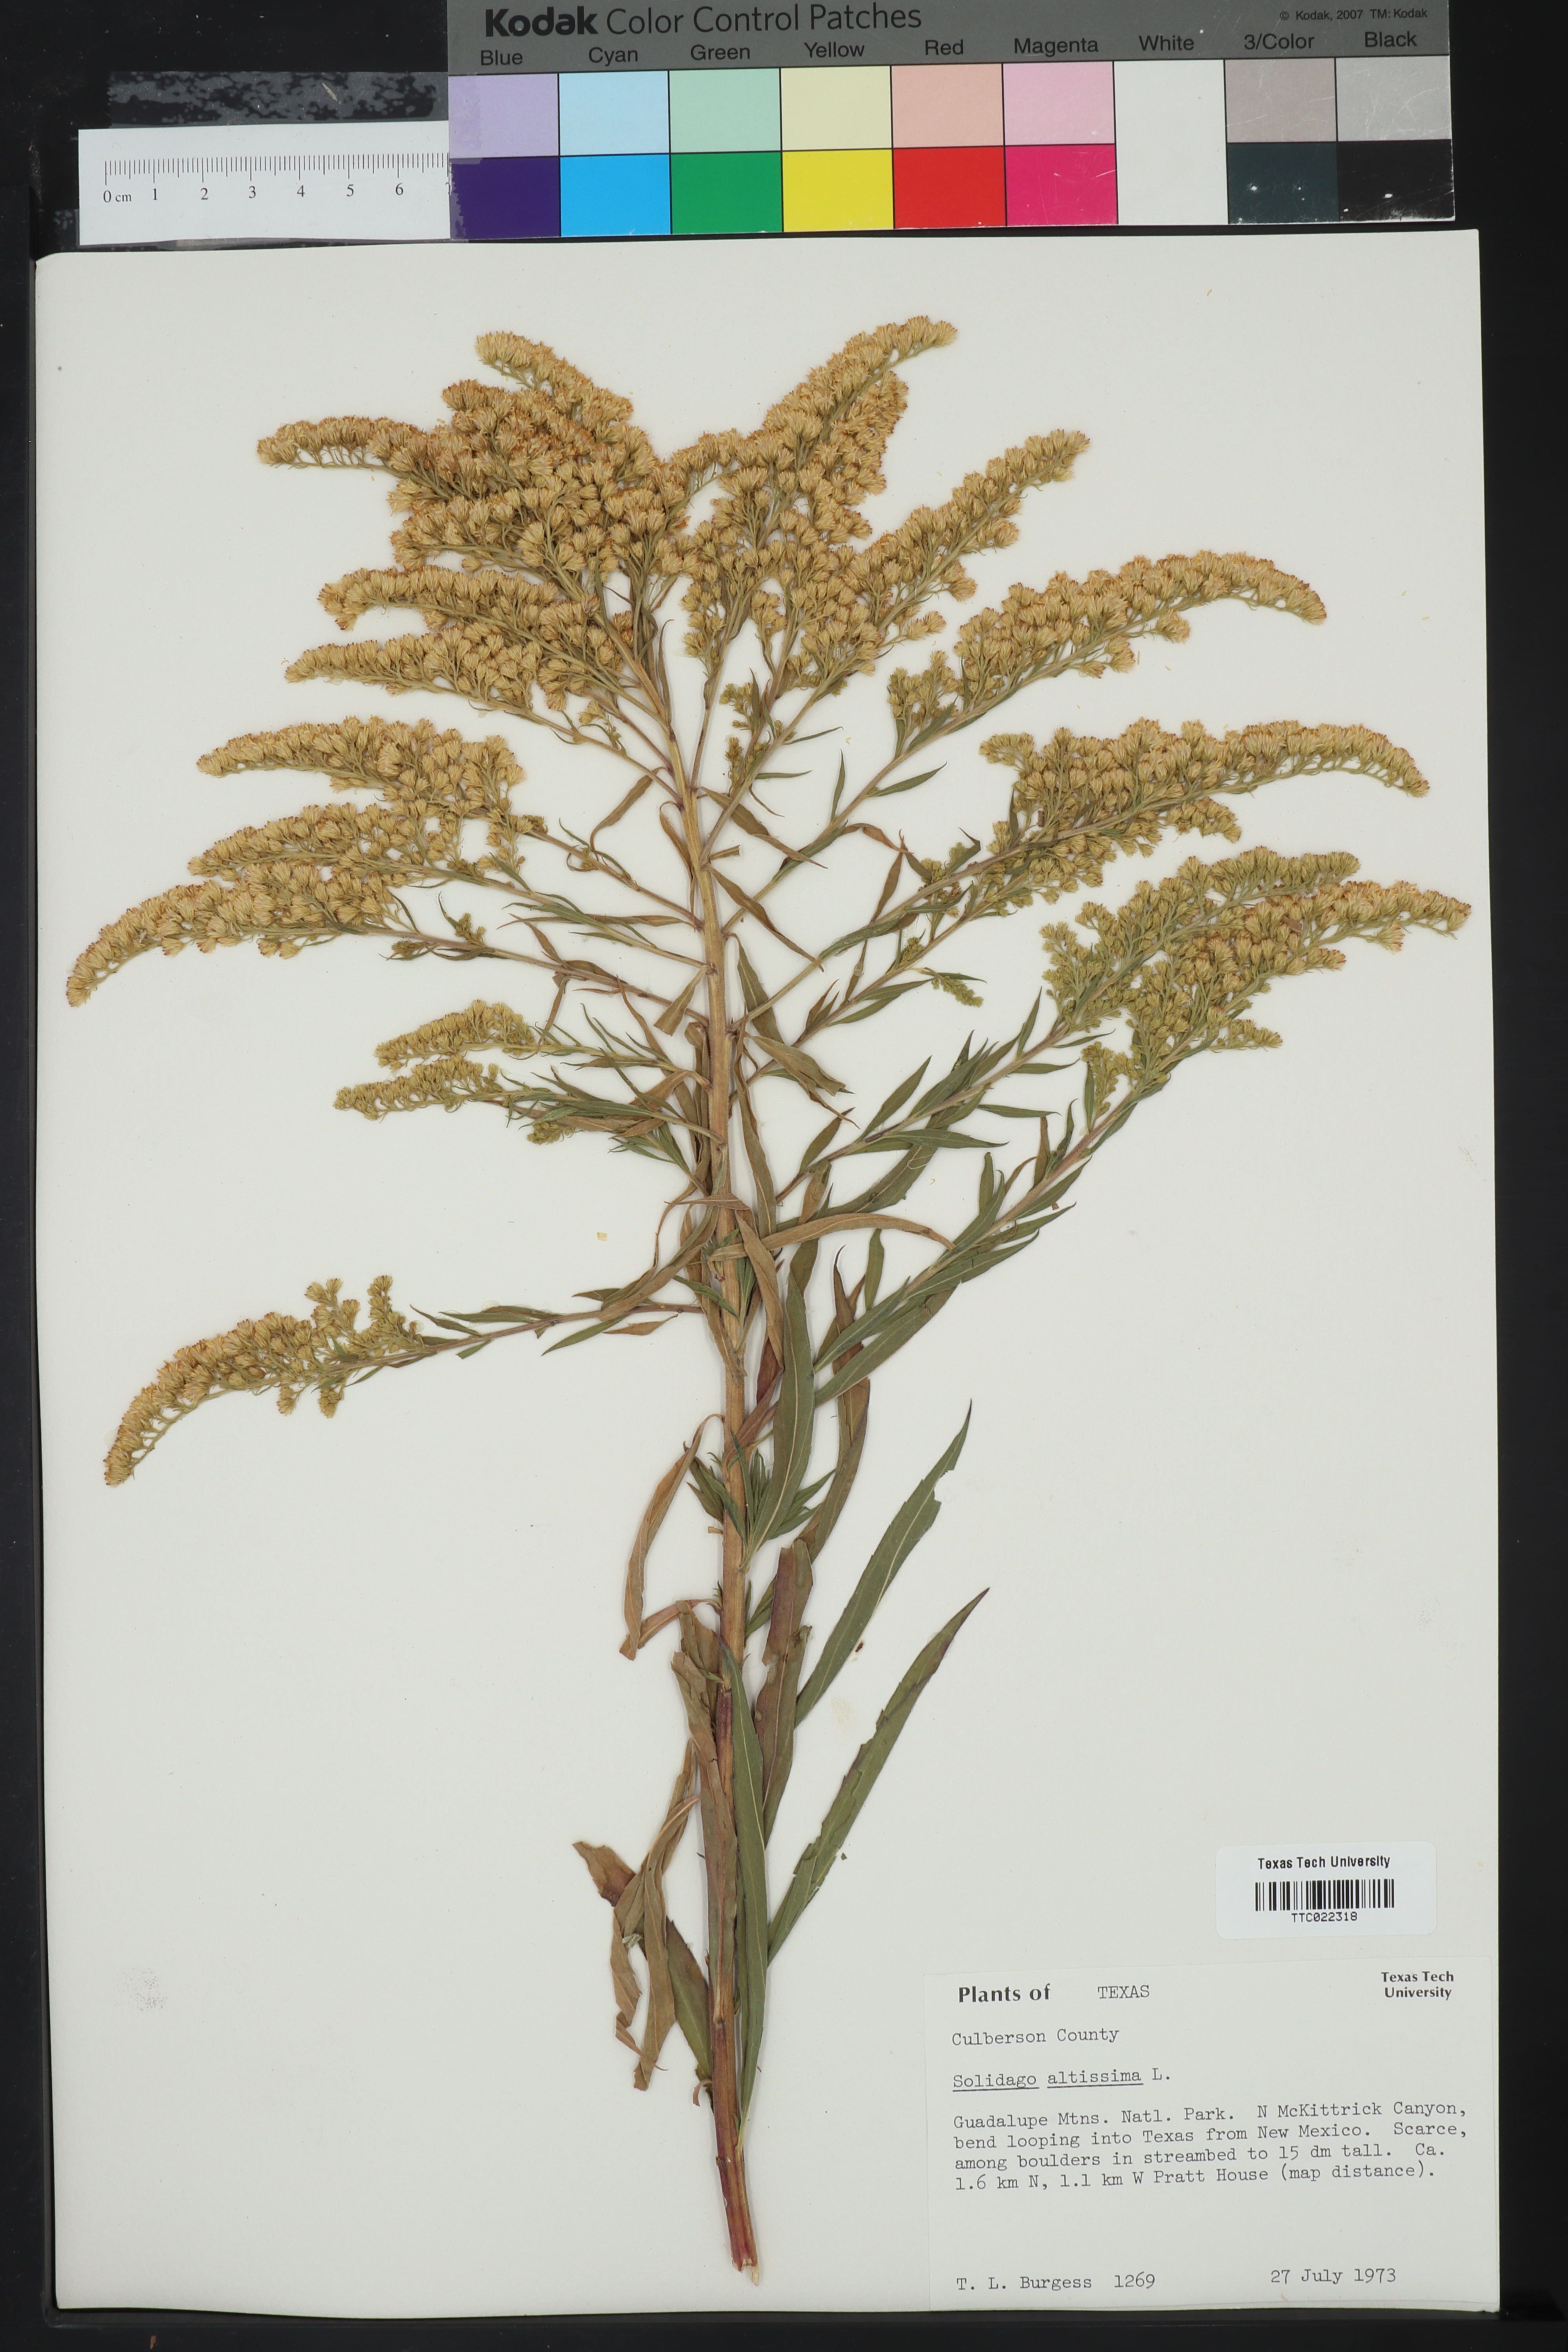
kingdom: Plantae
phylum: Tracheophyta
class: Magnoliopsida
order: Asterales
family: Asteraceae
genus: Solidago
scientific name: Solidago altissima
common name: Late goldenrod
